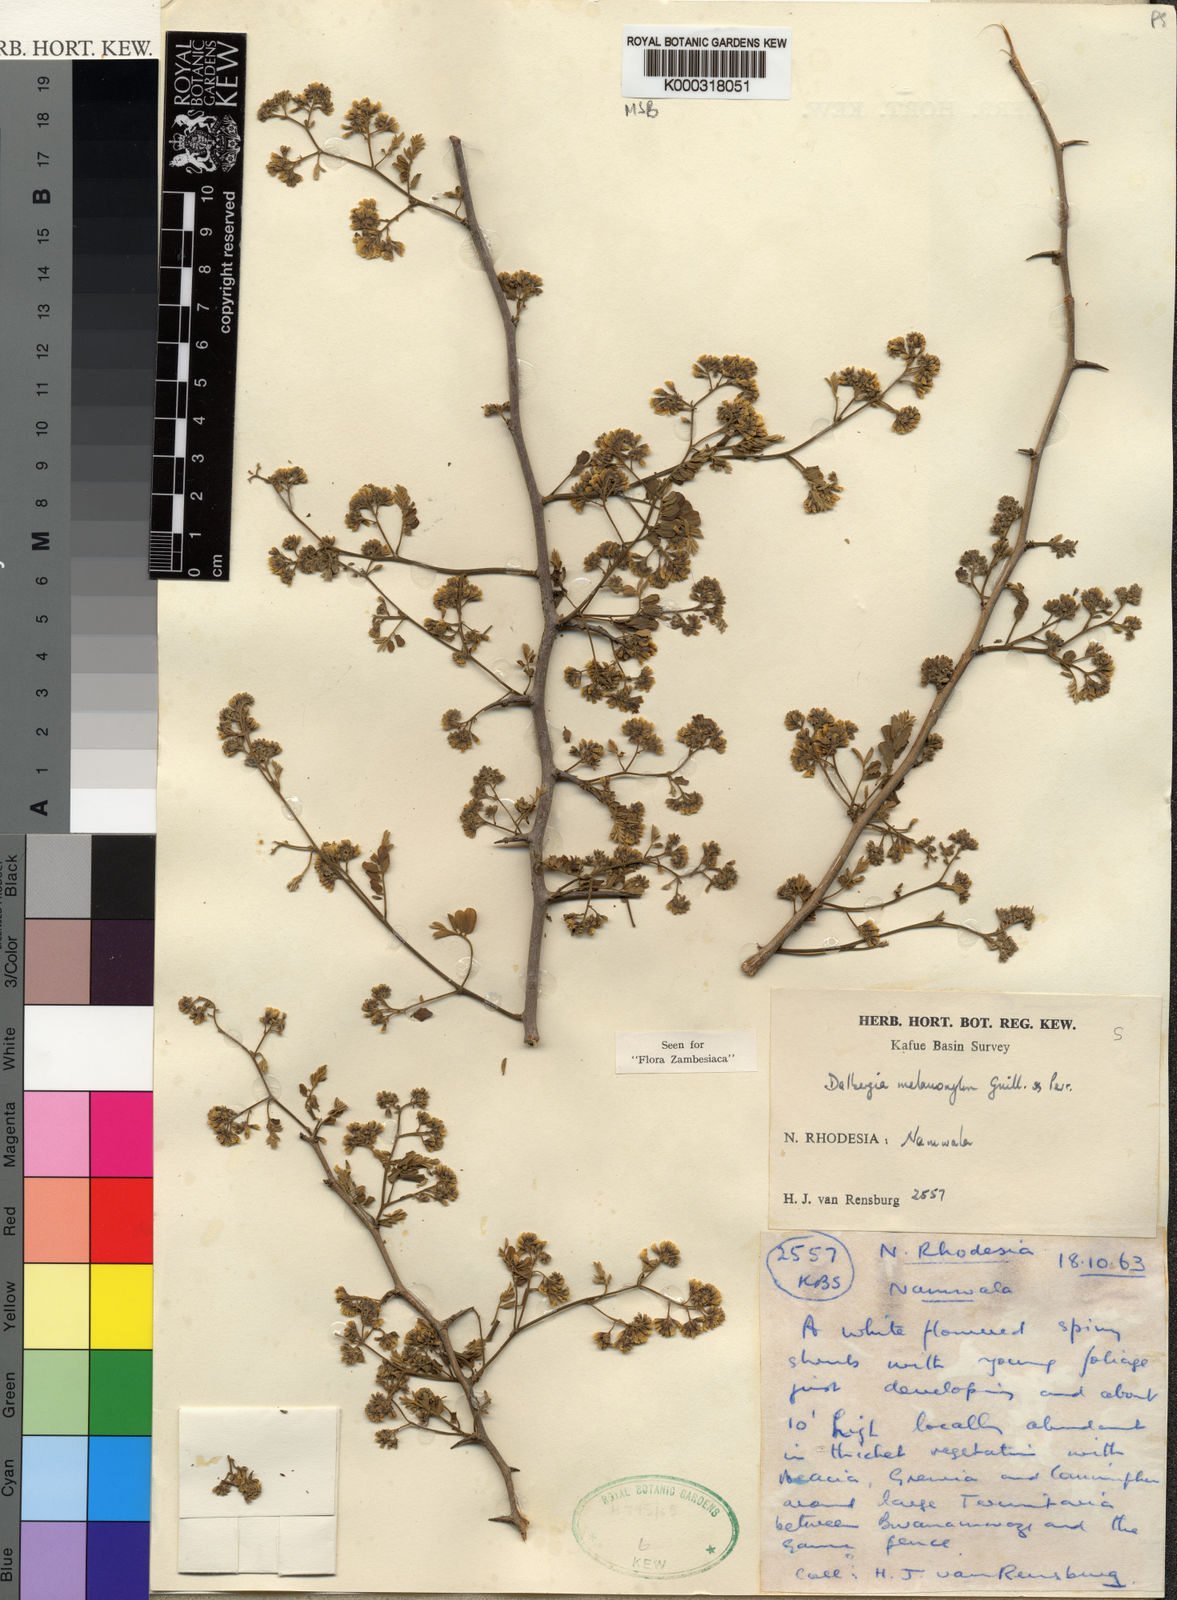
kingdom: Plantae
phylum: Tracheophyta
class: Magnoliopsida
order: Fabales
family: Fabaceae
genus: Dalbergia
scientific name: Dalbergia melanoxylon
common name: African blackwood
